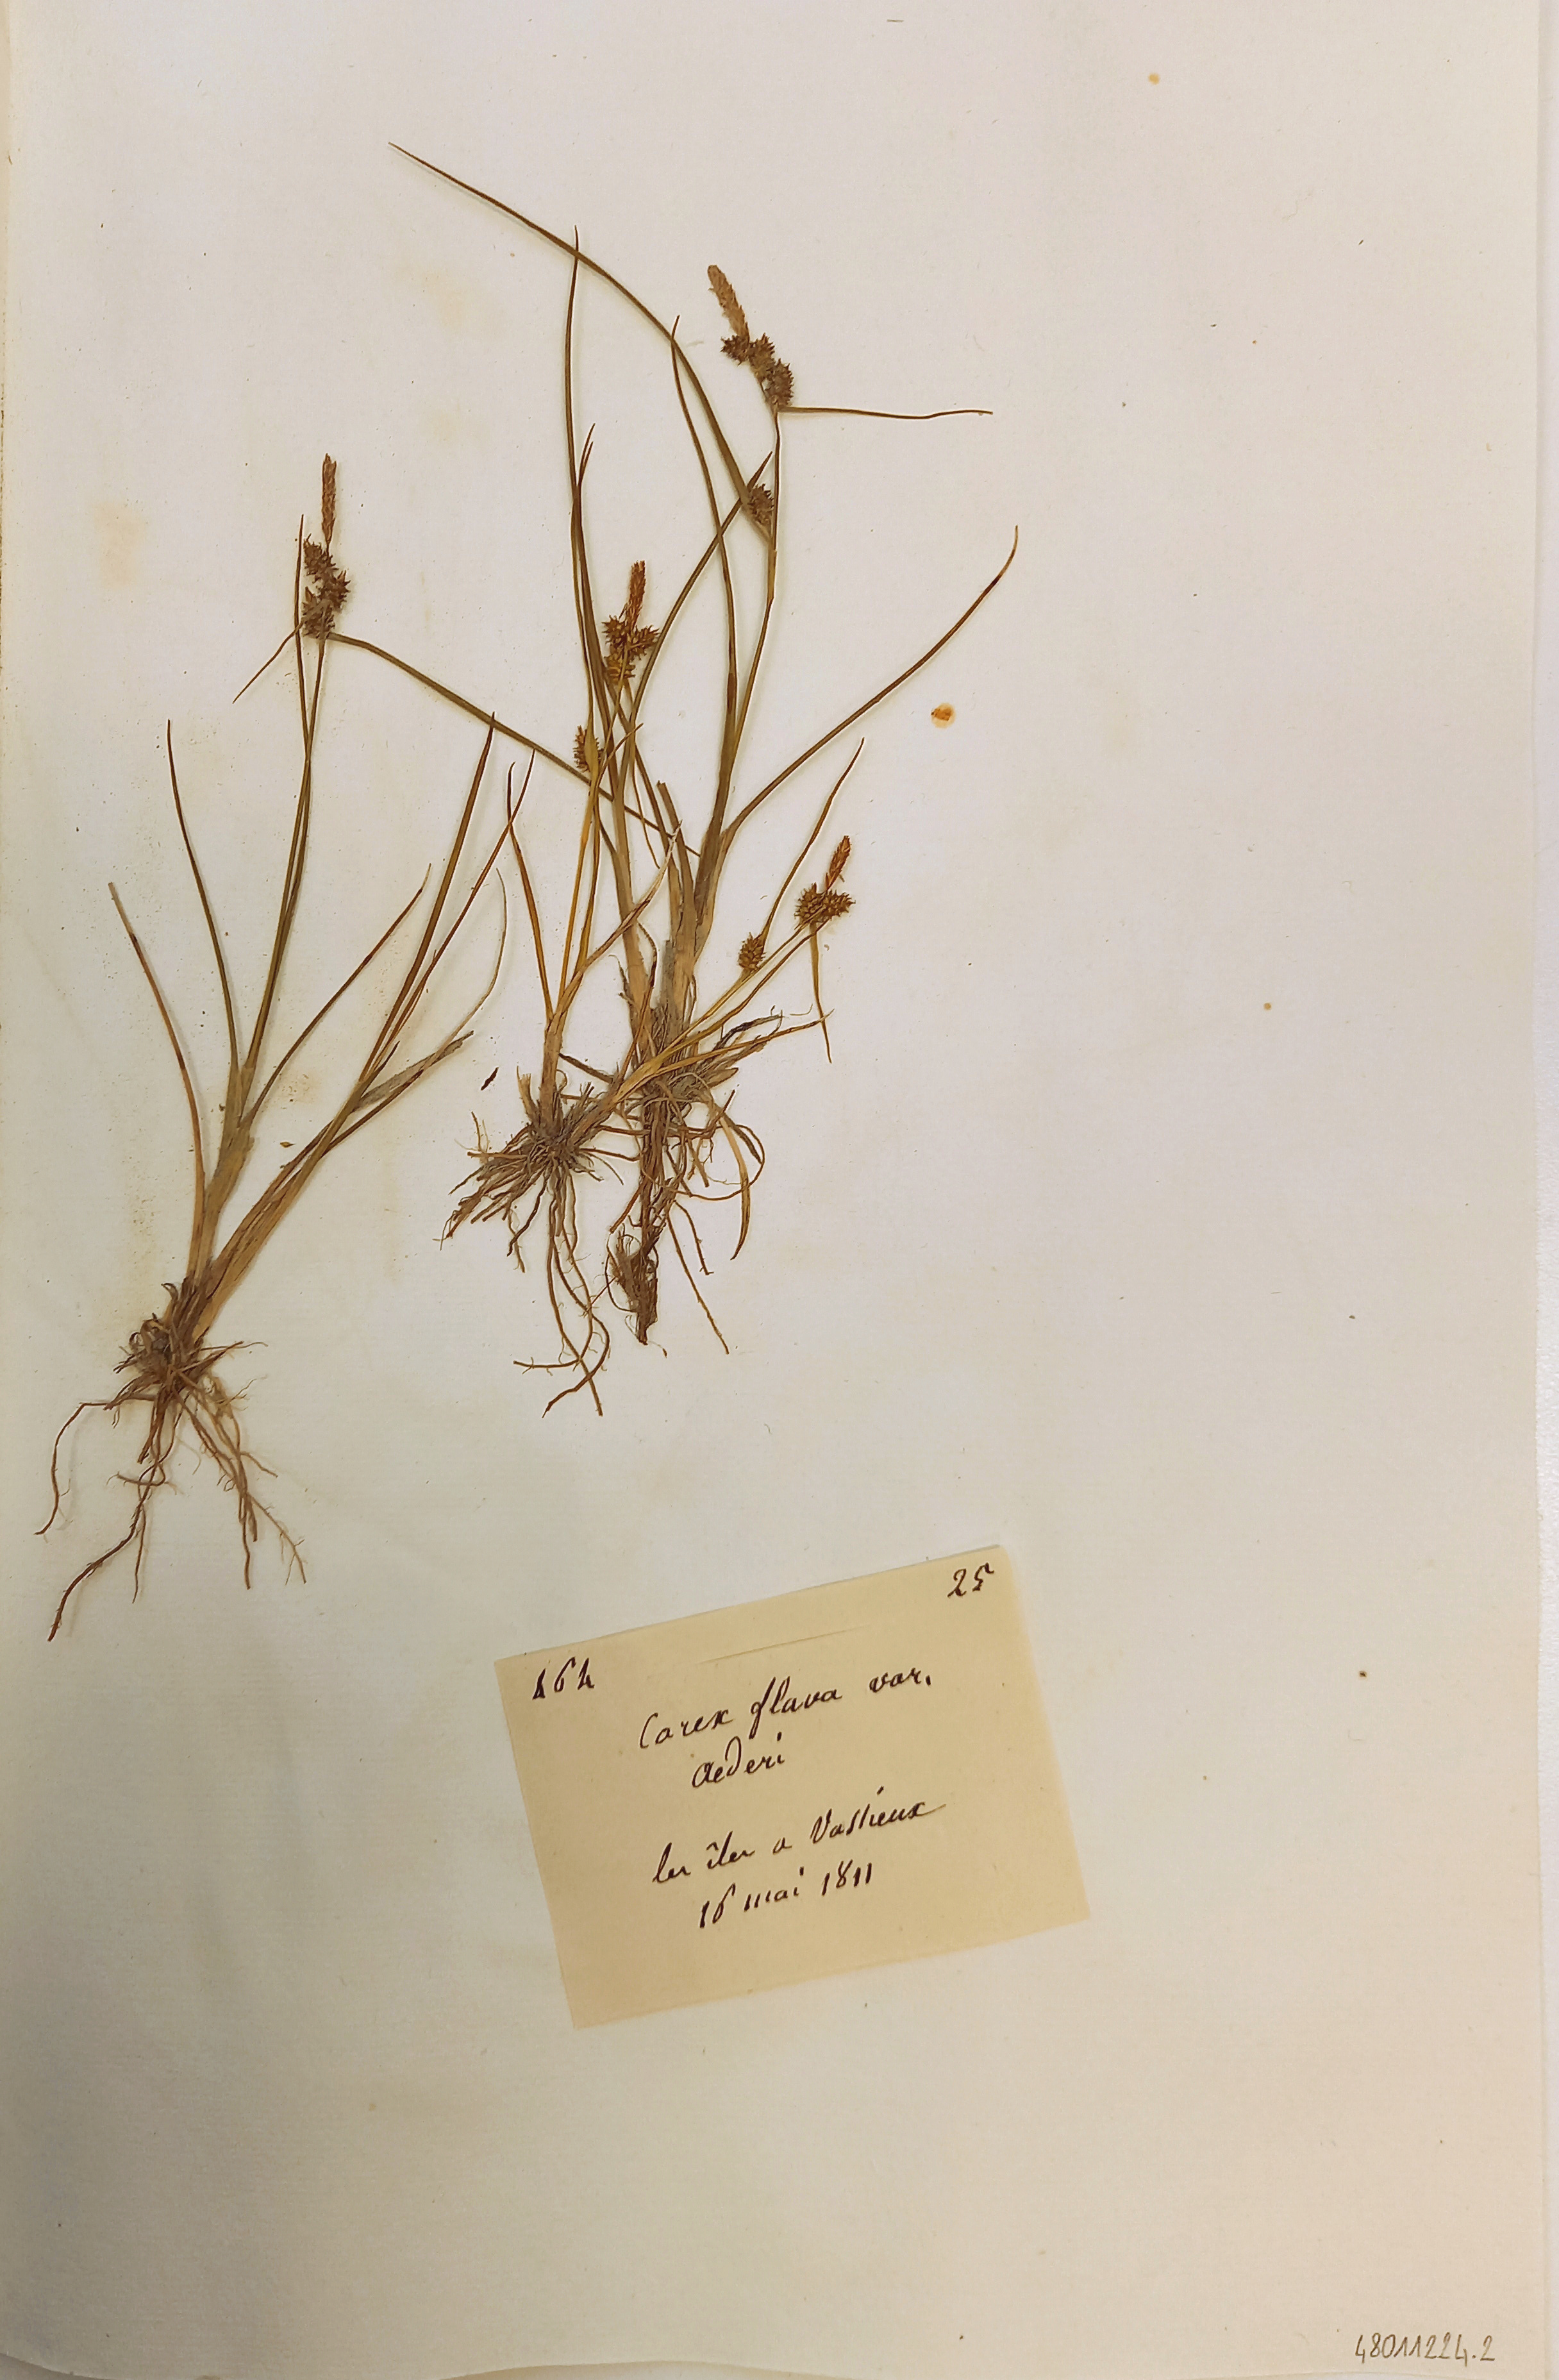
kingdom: Plantae
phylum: Tracheophyta
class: Liliopsida
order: Poales
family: Cyperaceae
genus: Carex
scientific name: Carex flava
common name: Large yellow-sedge
